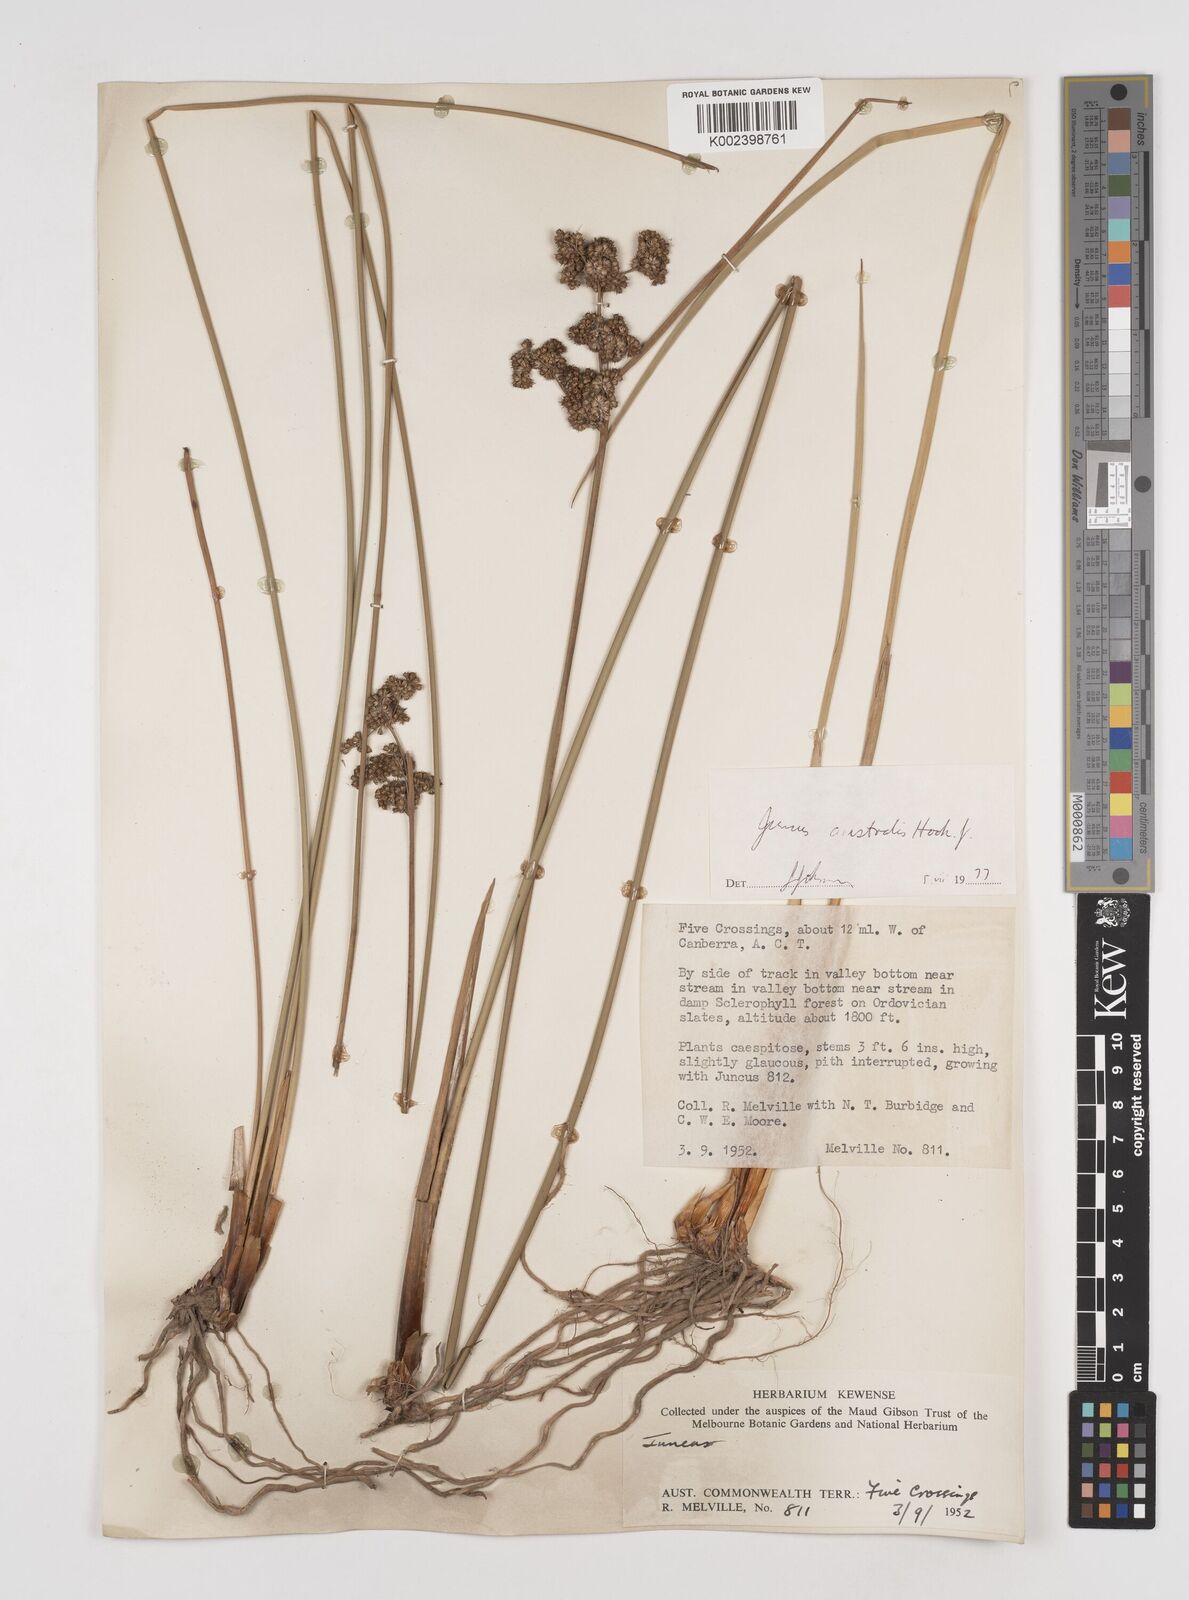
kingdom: Plantae
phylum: Tracheophyta
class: Liliopsida
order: Poales
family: Juncaceae
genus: Juncus
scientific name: Juncus australis
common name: Austral rush
